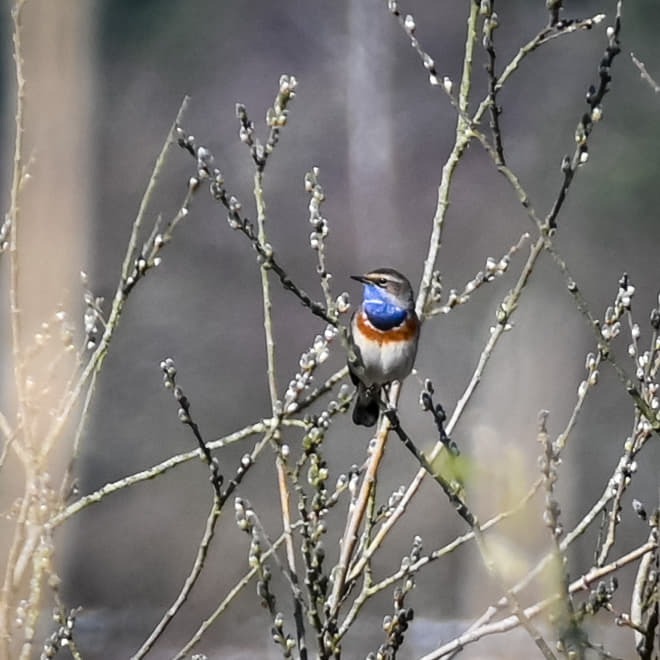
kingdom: Animalia
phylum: Chordata
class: Aves
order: Passeriformes
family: Muscicapidae
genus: Luscinia
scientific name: Luscinia svecica
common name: Blåhals
